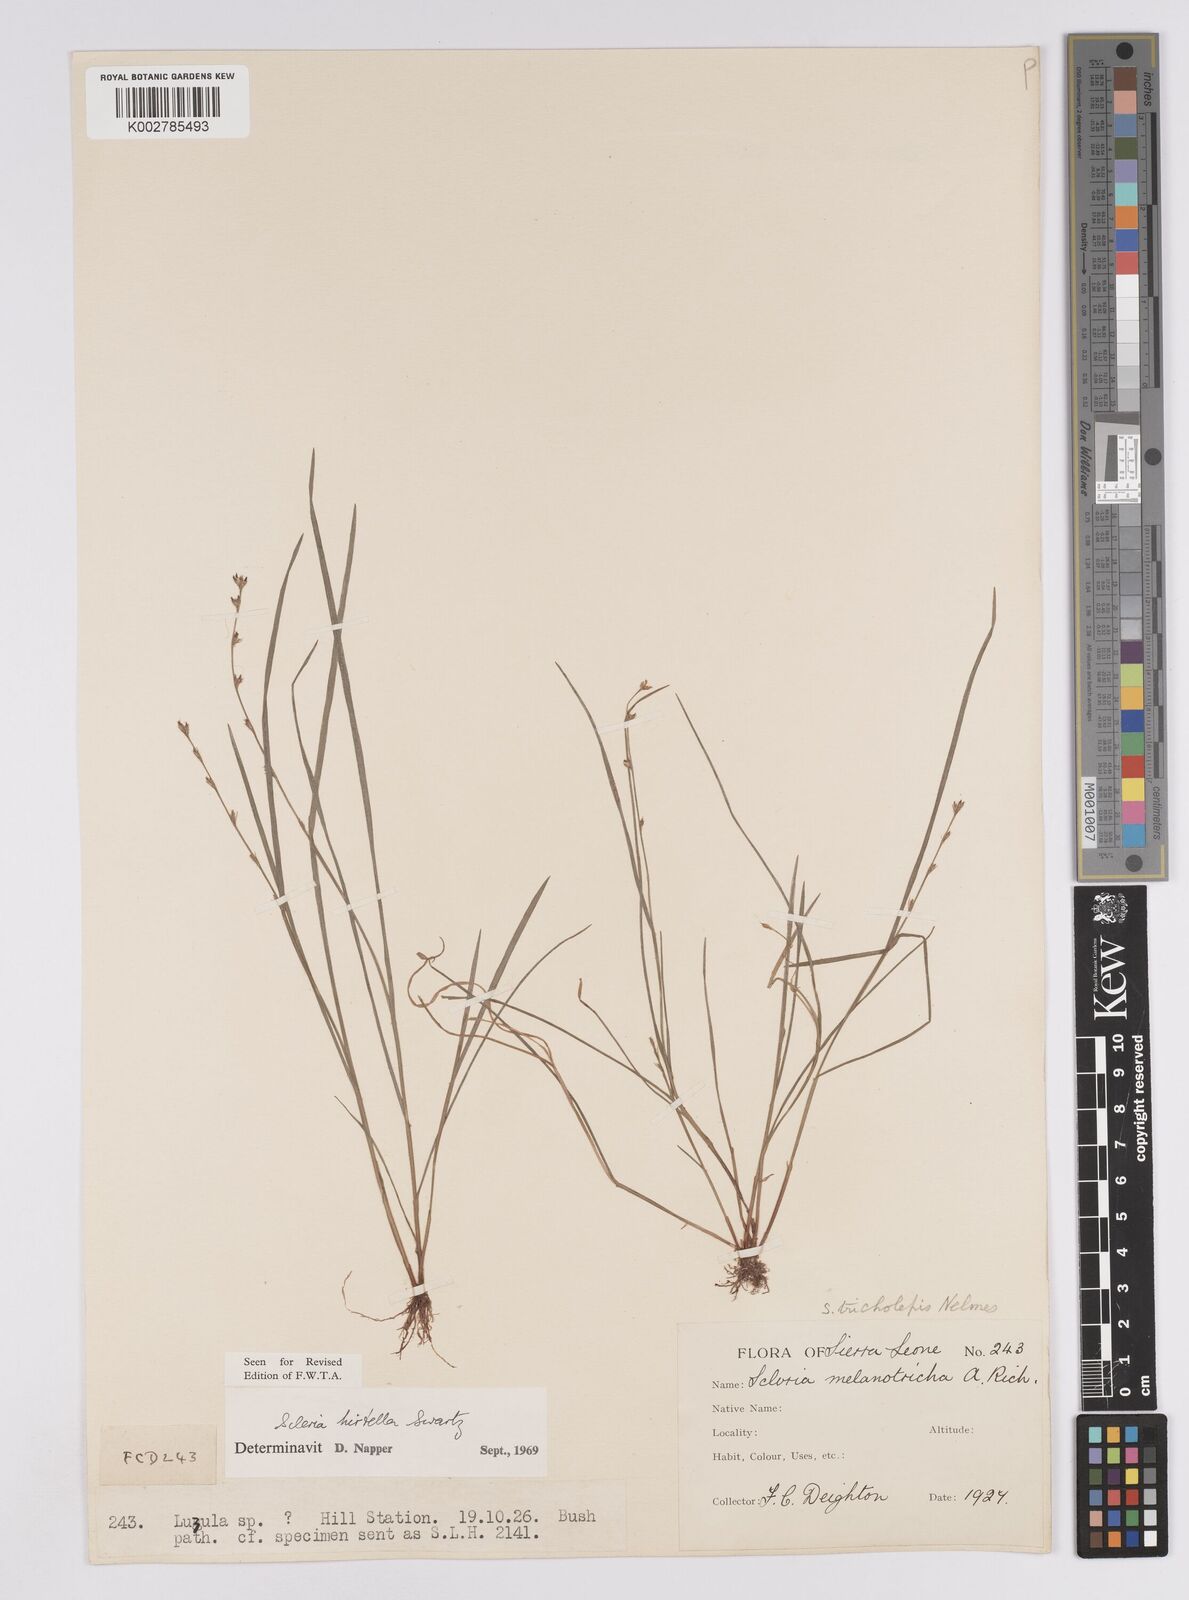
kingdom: Plantae
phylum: Tracheophyta
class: Liliopsida
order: Poales
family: Cyperaceae
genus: Scleria
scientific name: Scleria tricholepis
